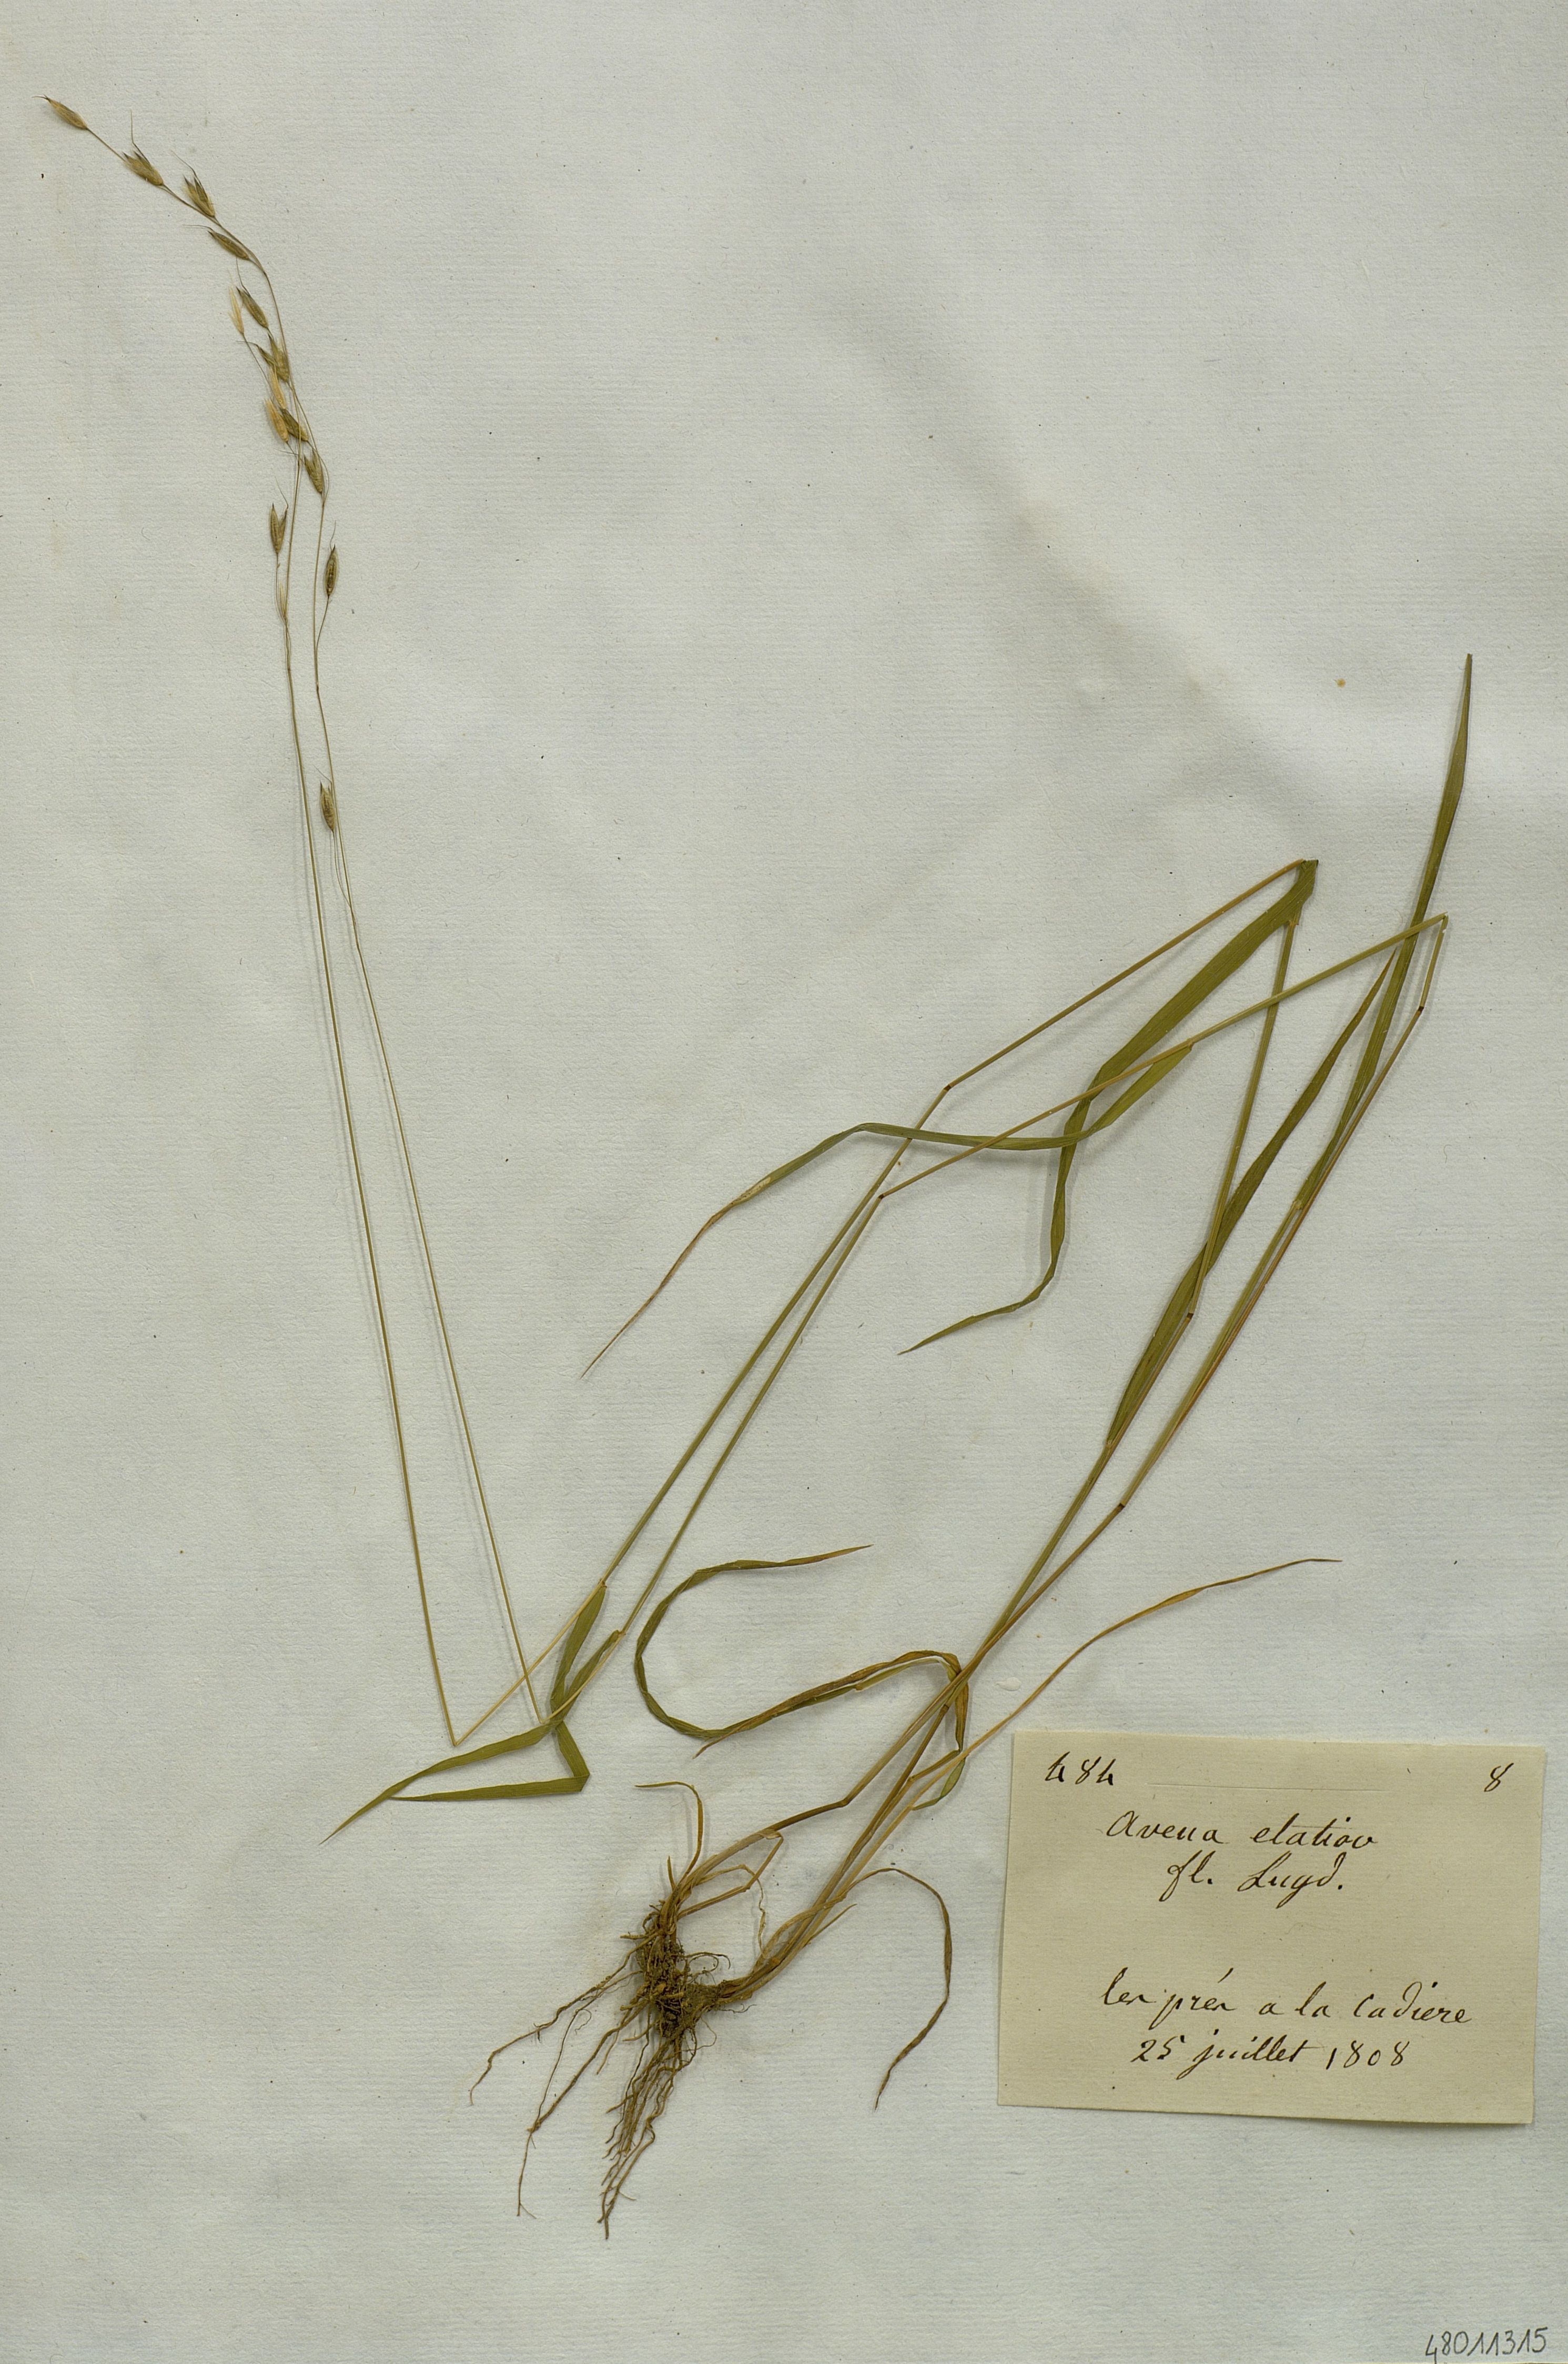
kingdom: Plantae
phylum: Tracheophyta
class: Liliopsida
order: Poales
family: Poaceae
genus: Arrhenatherum
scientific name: Arrhenatherum elatius
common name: Tall oatgrass
